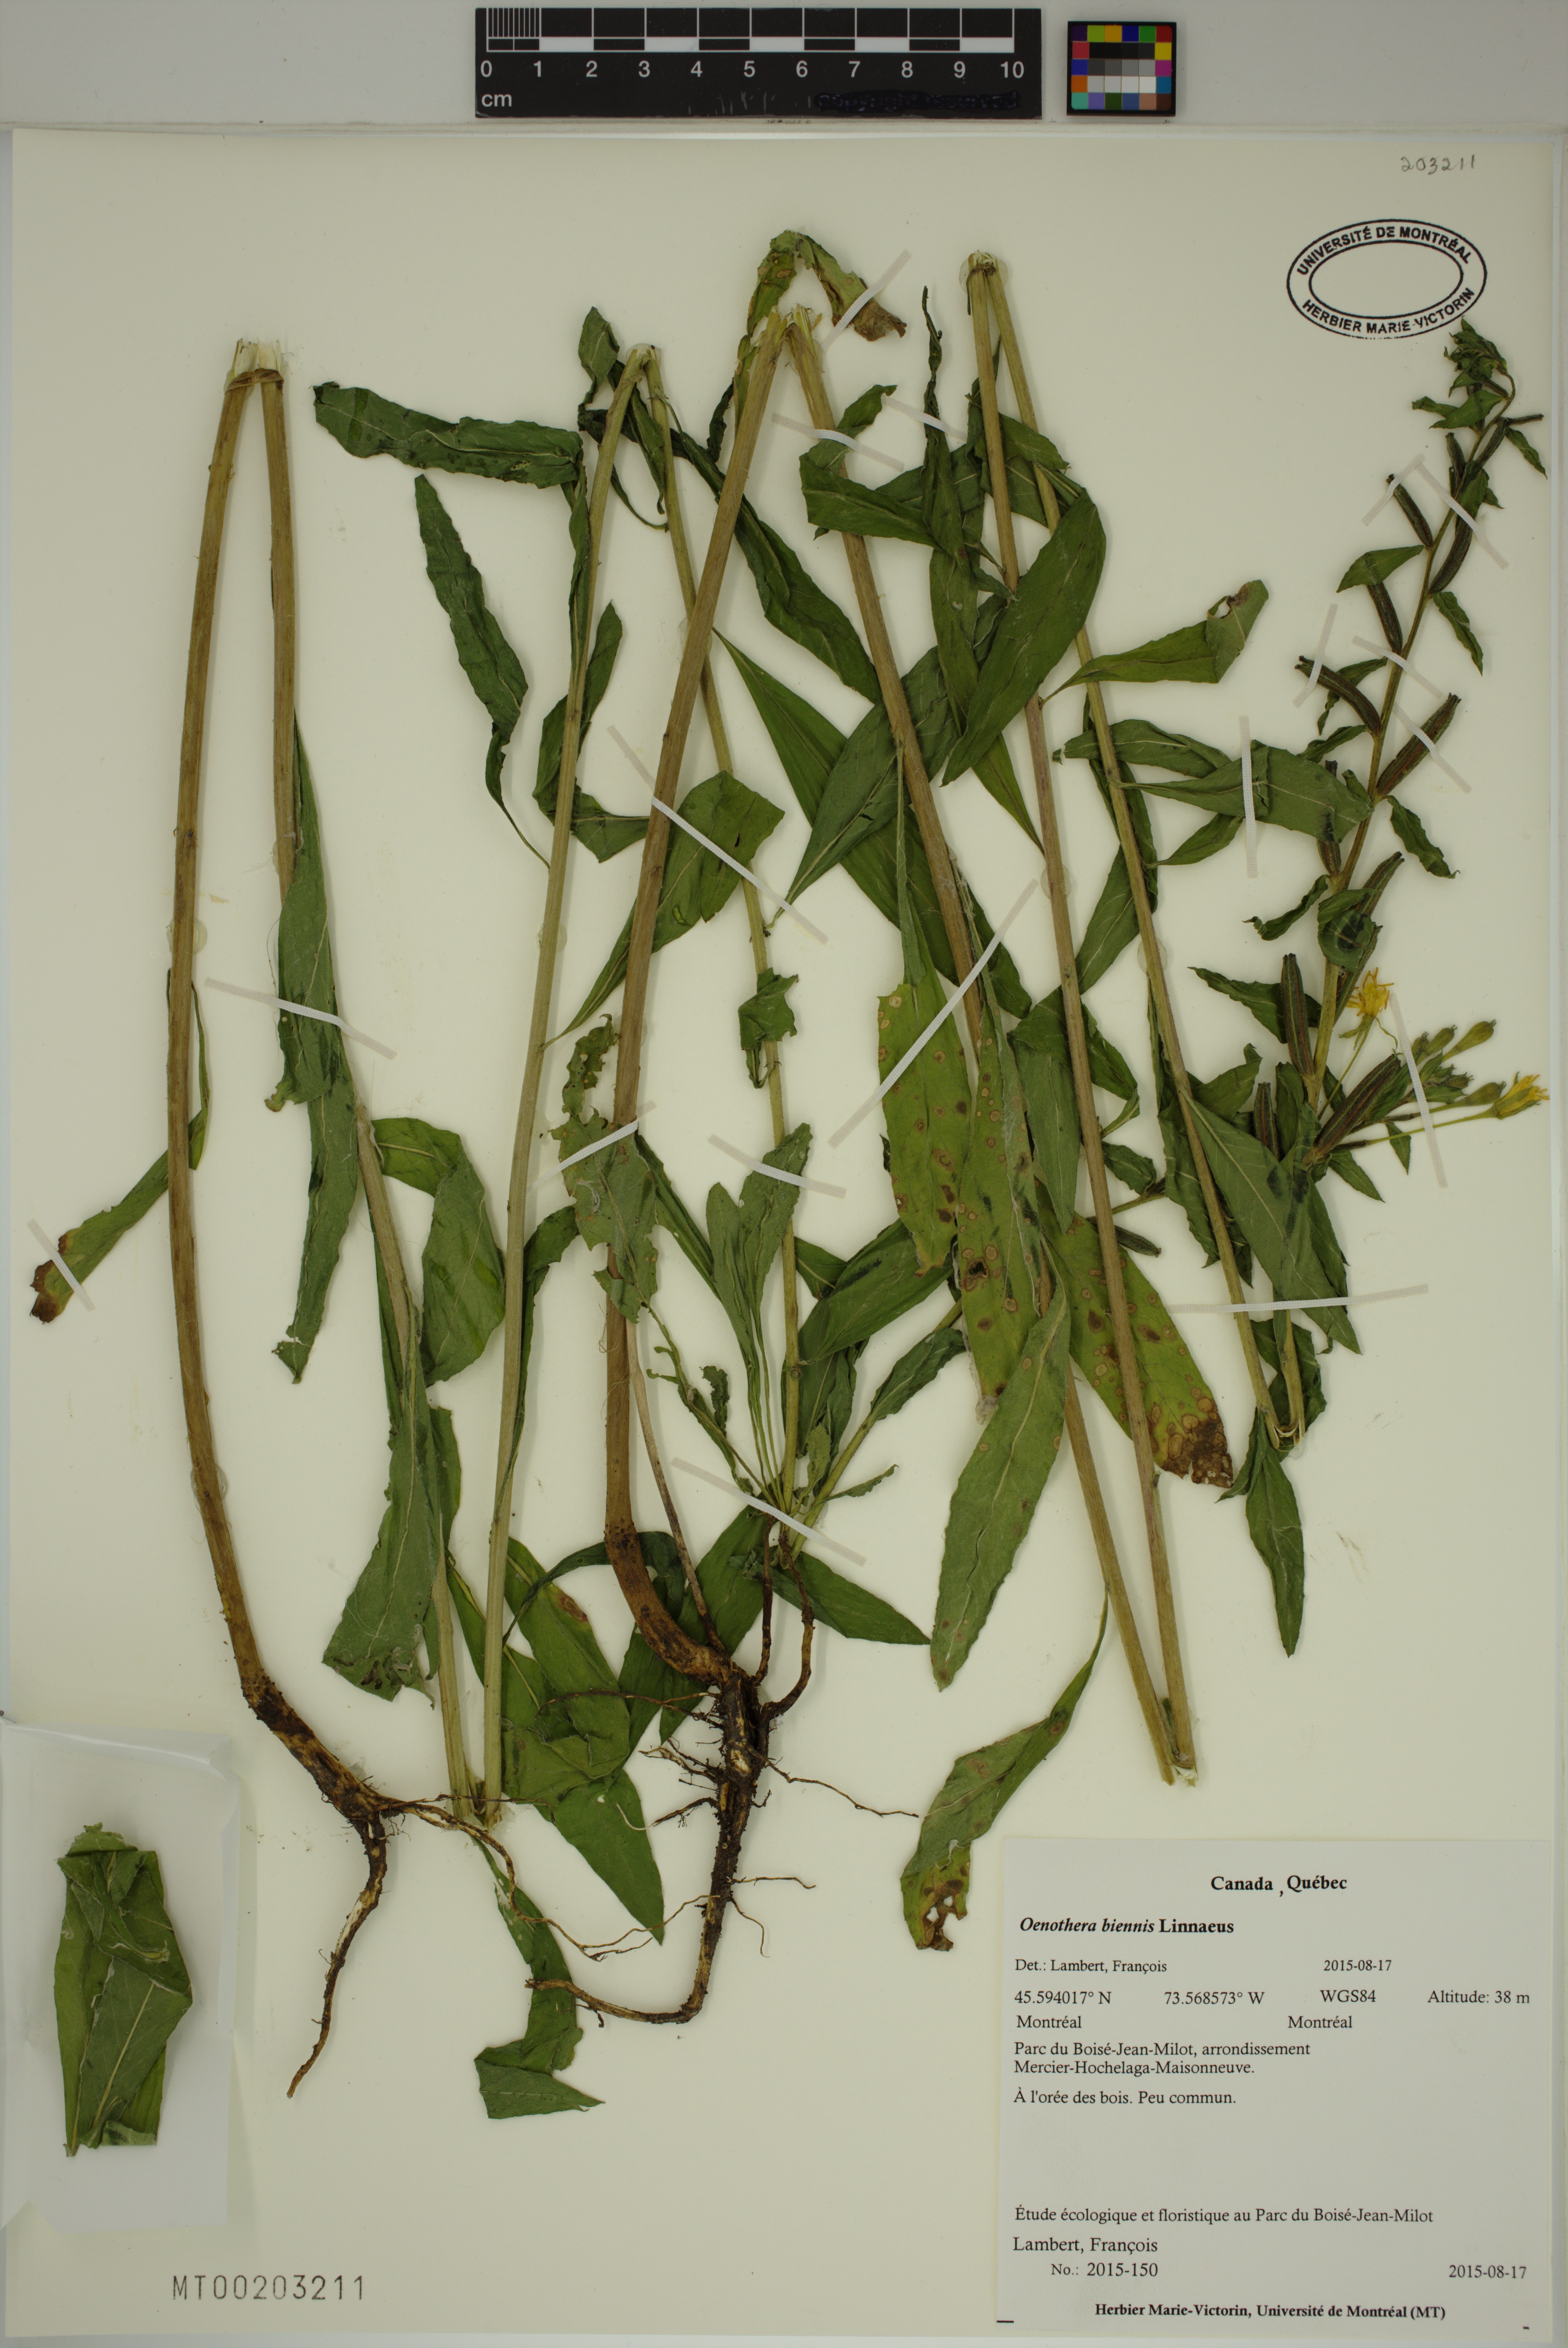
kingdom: Plantae
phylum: Tracheophyta
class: Magnoliopsida
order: Myrtales
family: Onagraceae
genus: Oenothera
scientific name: Oenothera biennis
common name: Common evening-primrose
